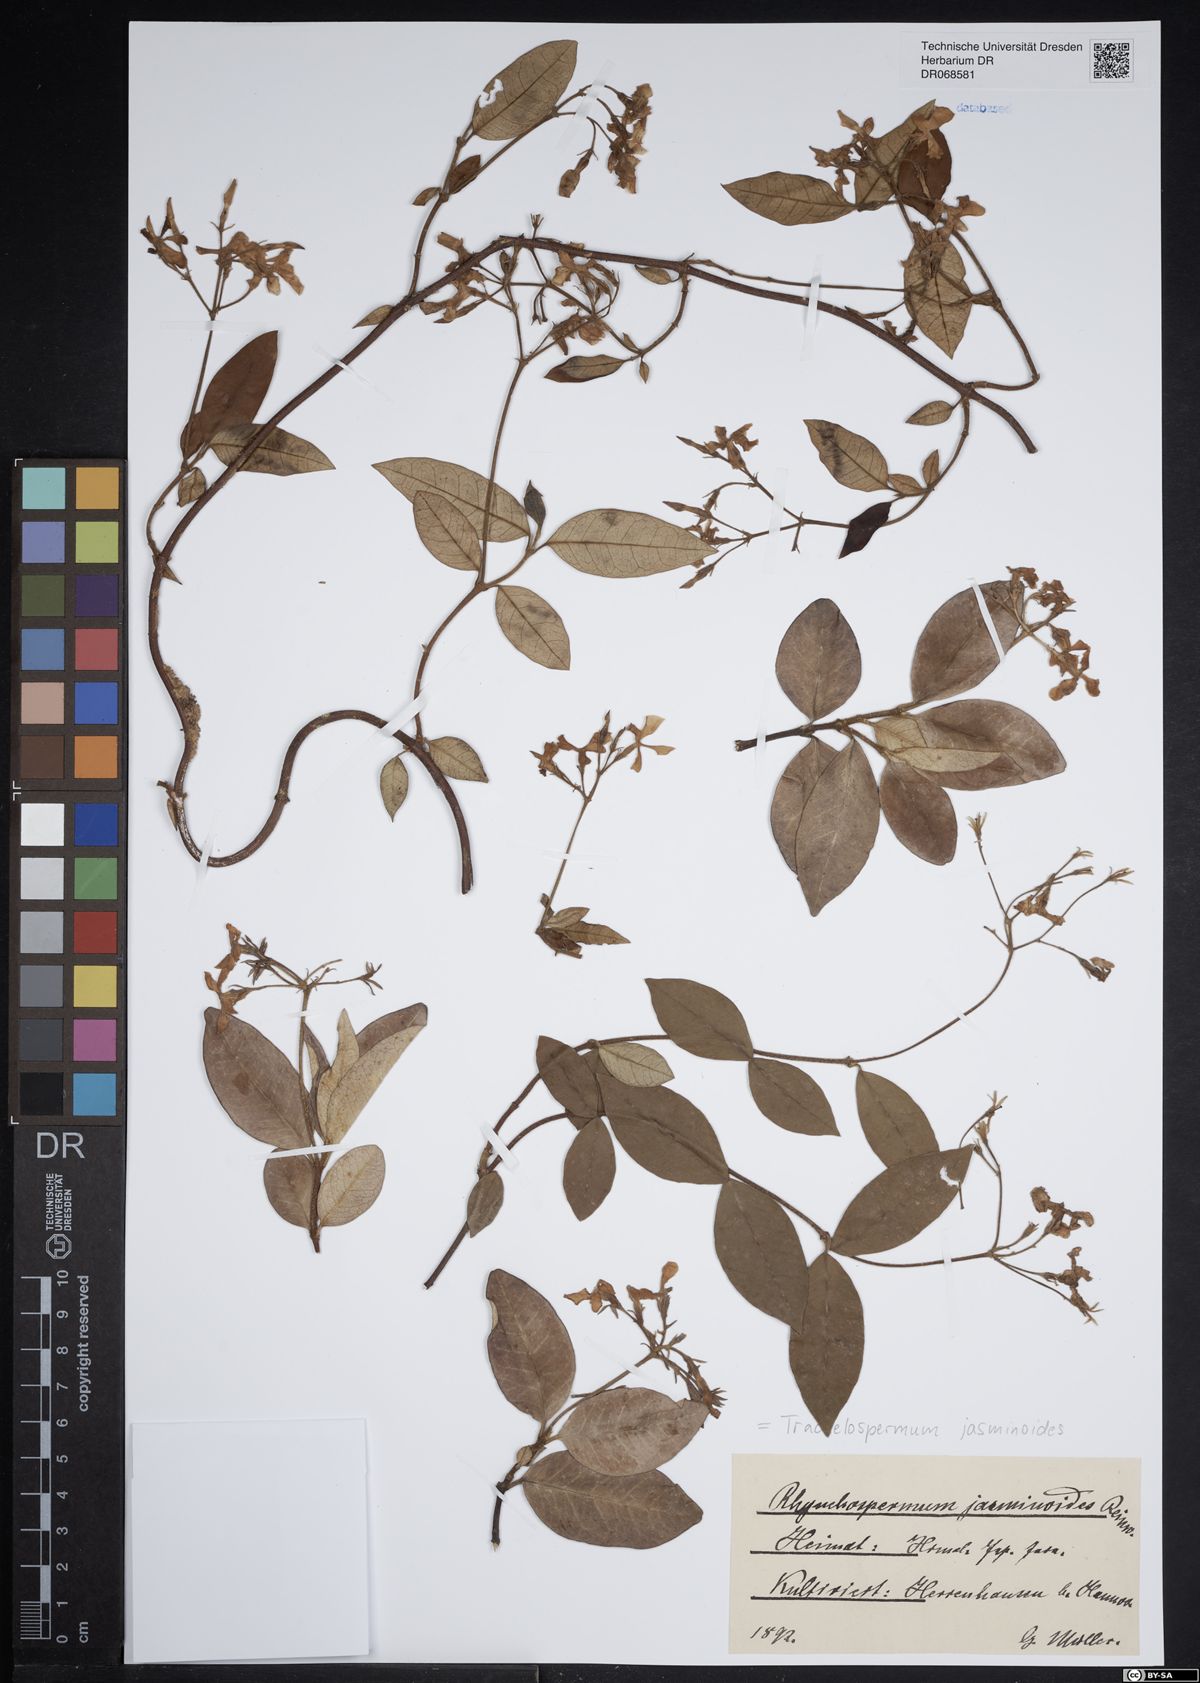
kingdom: Plantae
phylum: Tracheophyta
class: Magnoliopsida
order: Gentianales
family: Apocynaceae
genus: Trachelospermum
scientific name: Trachelospermum jasminoides
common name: Confederate jasmine
